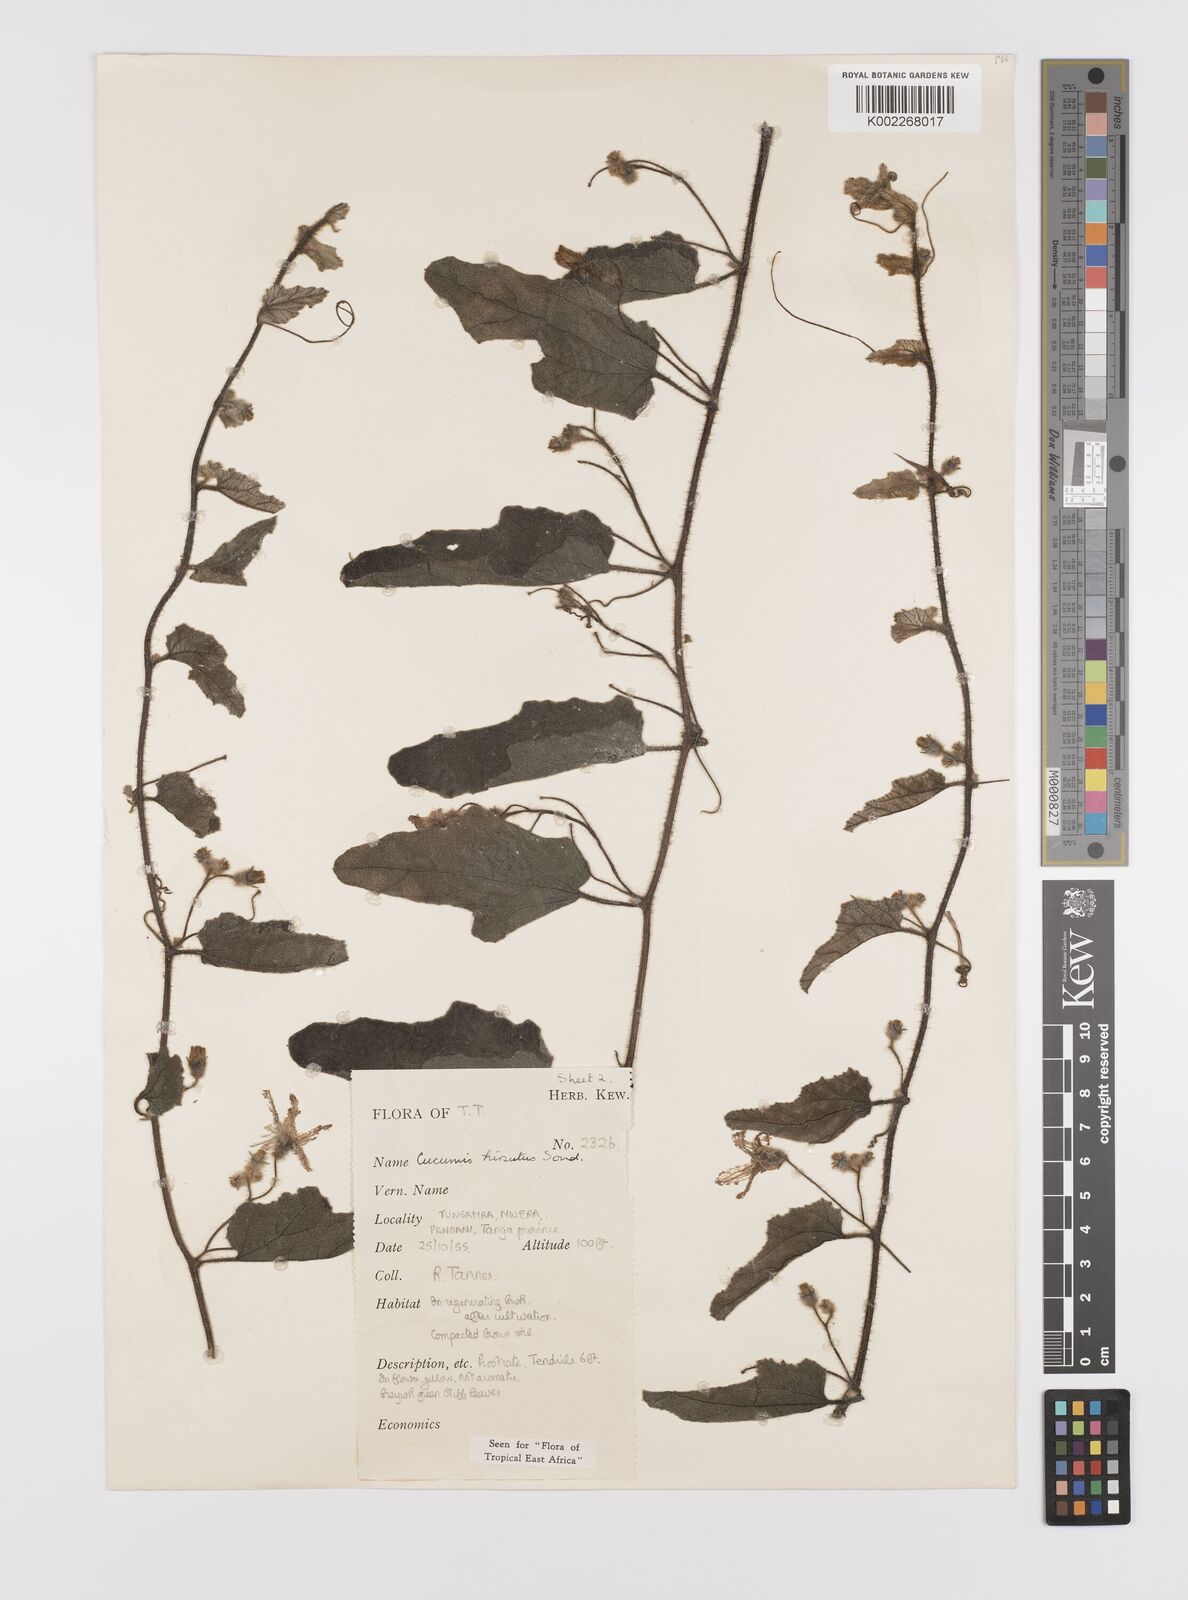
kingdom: Plantae
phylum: Tracheophyta
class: Magnoliopsida
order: Cucurbitales
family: Cucurbitaceae
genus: Cucumis
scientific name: Cucumis hirsutus
